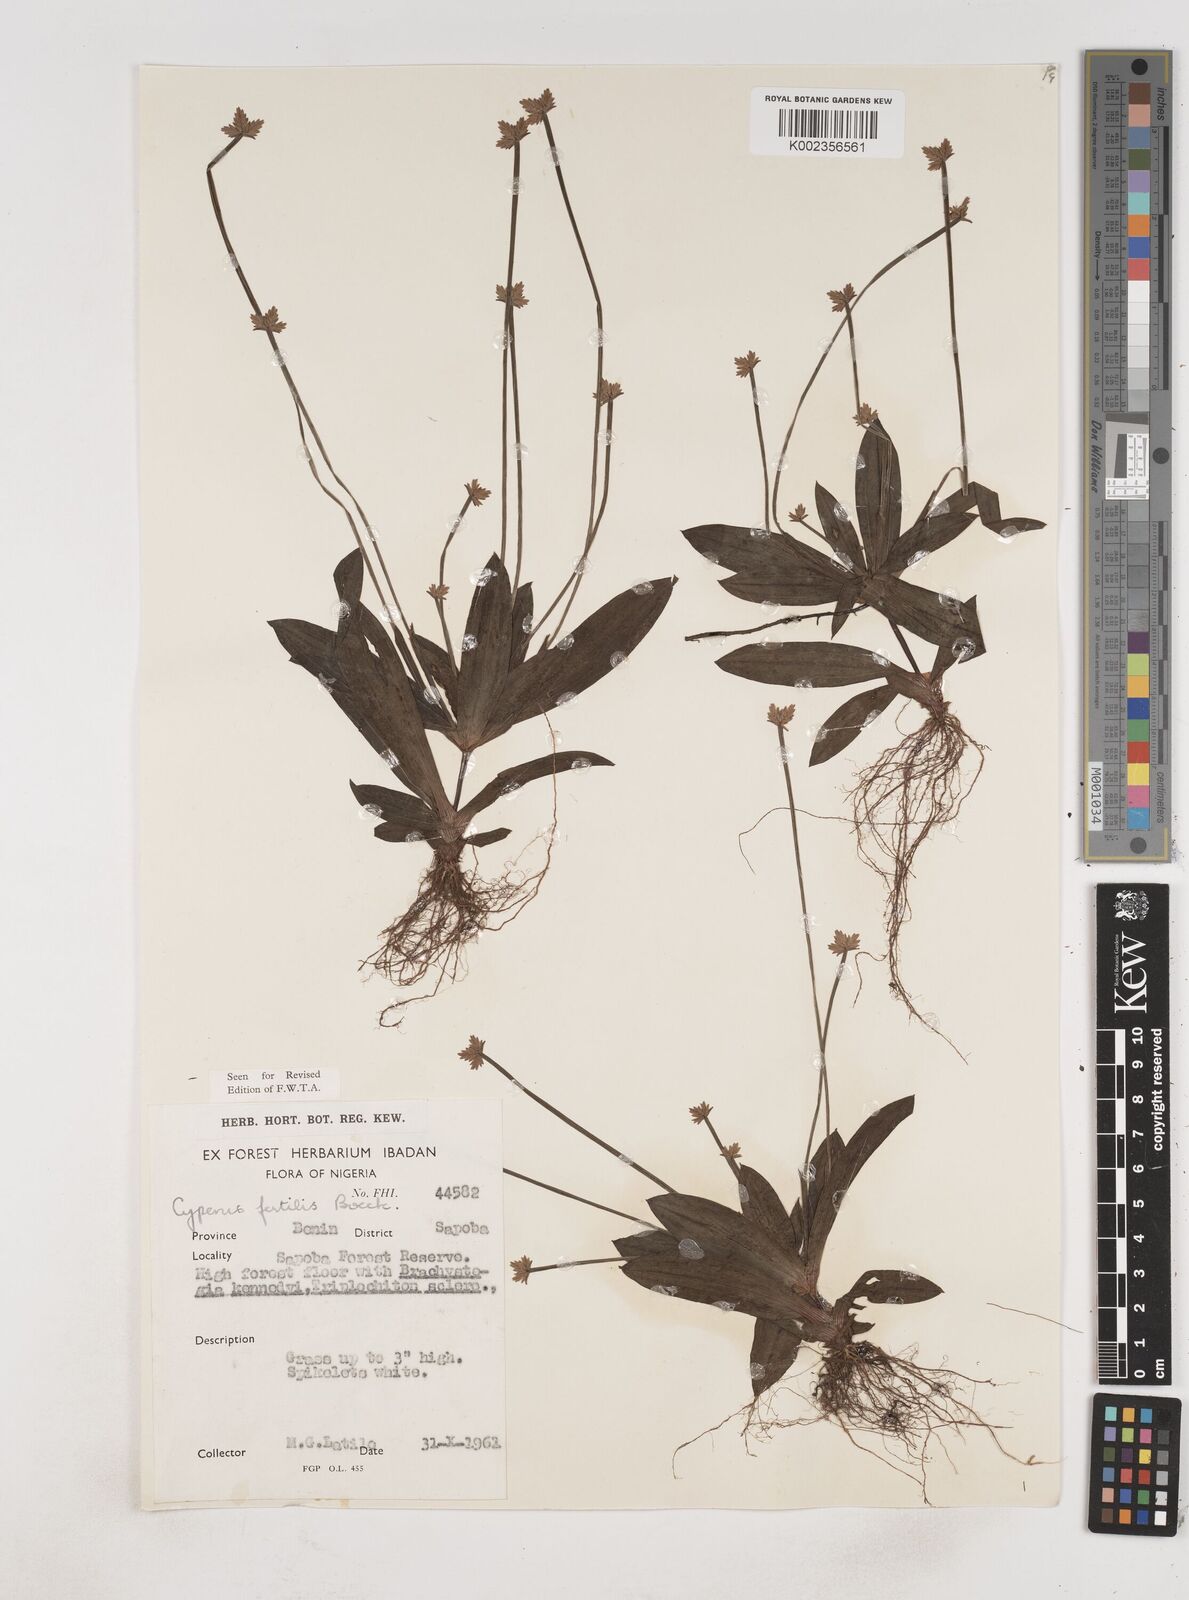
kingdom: Plantae
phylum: Tracheophyta
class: Liliopsida
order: Poales
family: Cyperaceae
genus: Cyperus
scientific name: Cyperus fertilis
